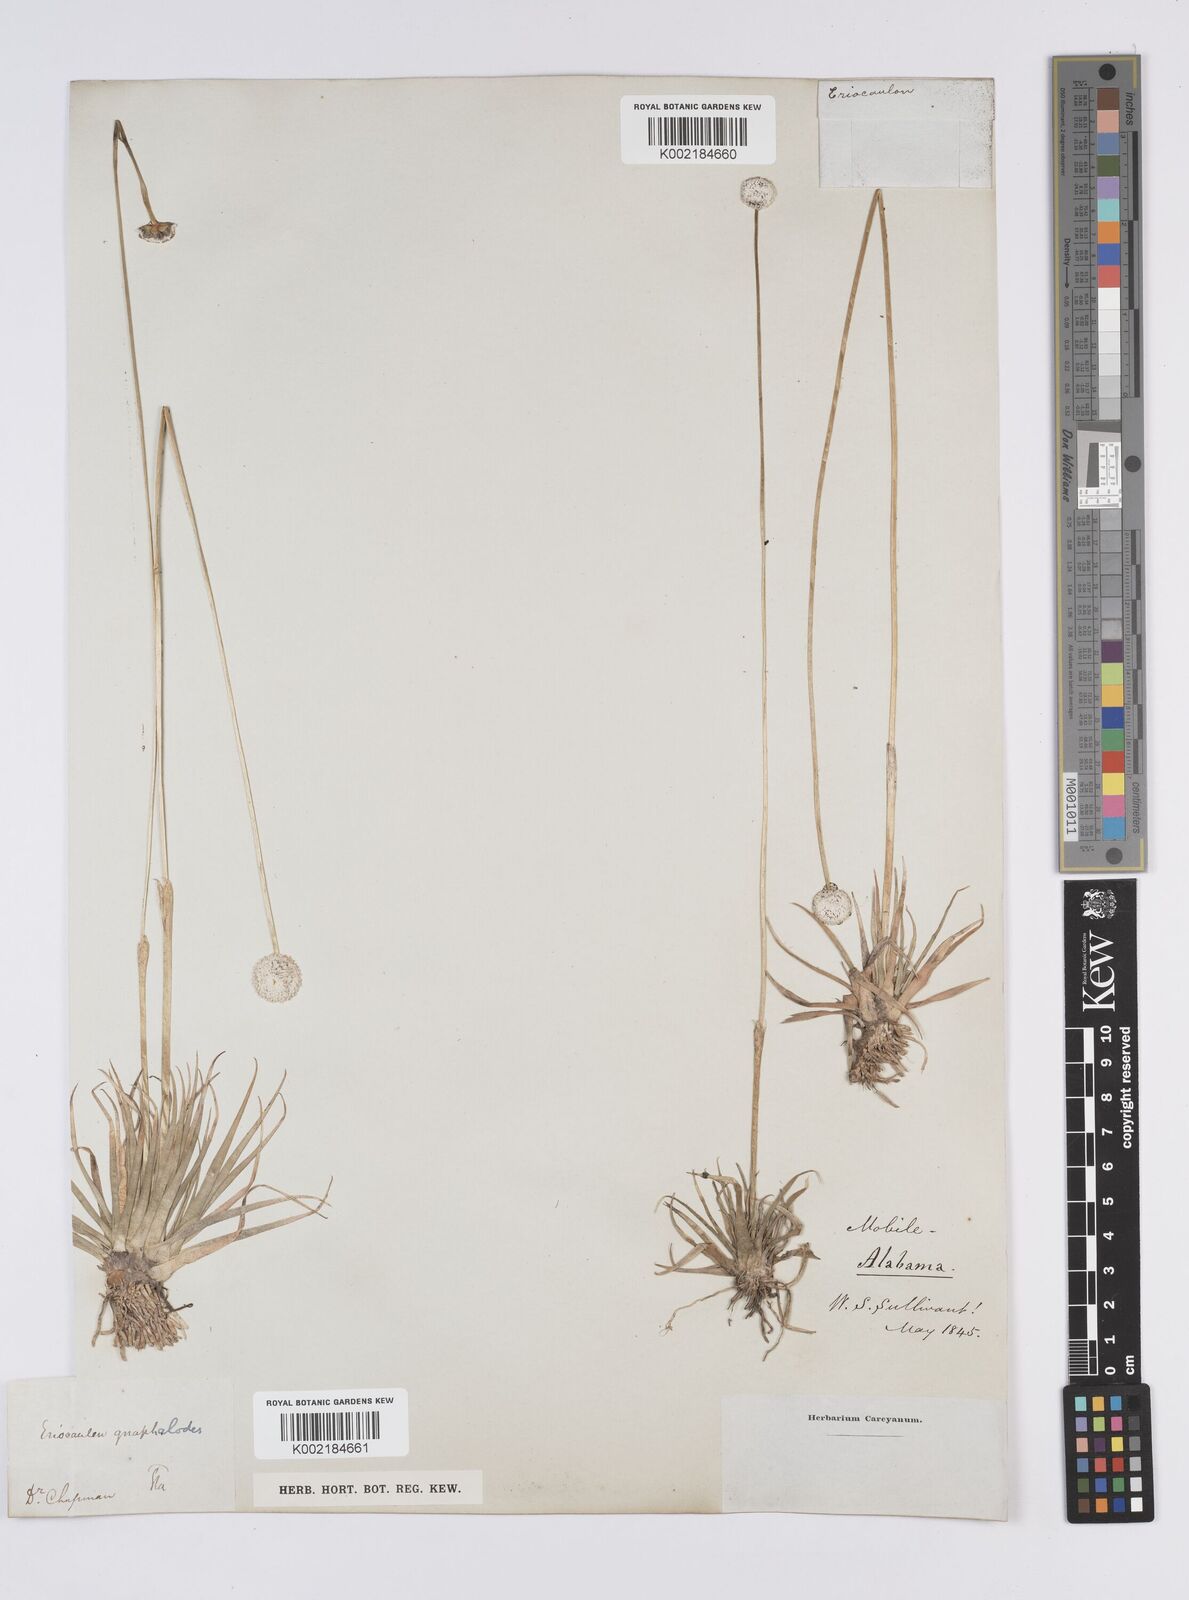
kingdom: Plantae
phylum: Tracheophyta
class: Liliopsida
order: Poales
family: Eriocaulaceae
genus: Eriocaulon
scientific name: Eriocaulon compressum
